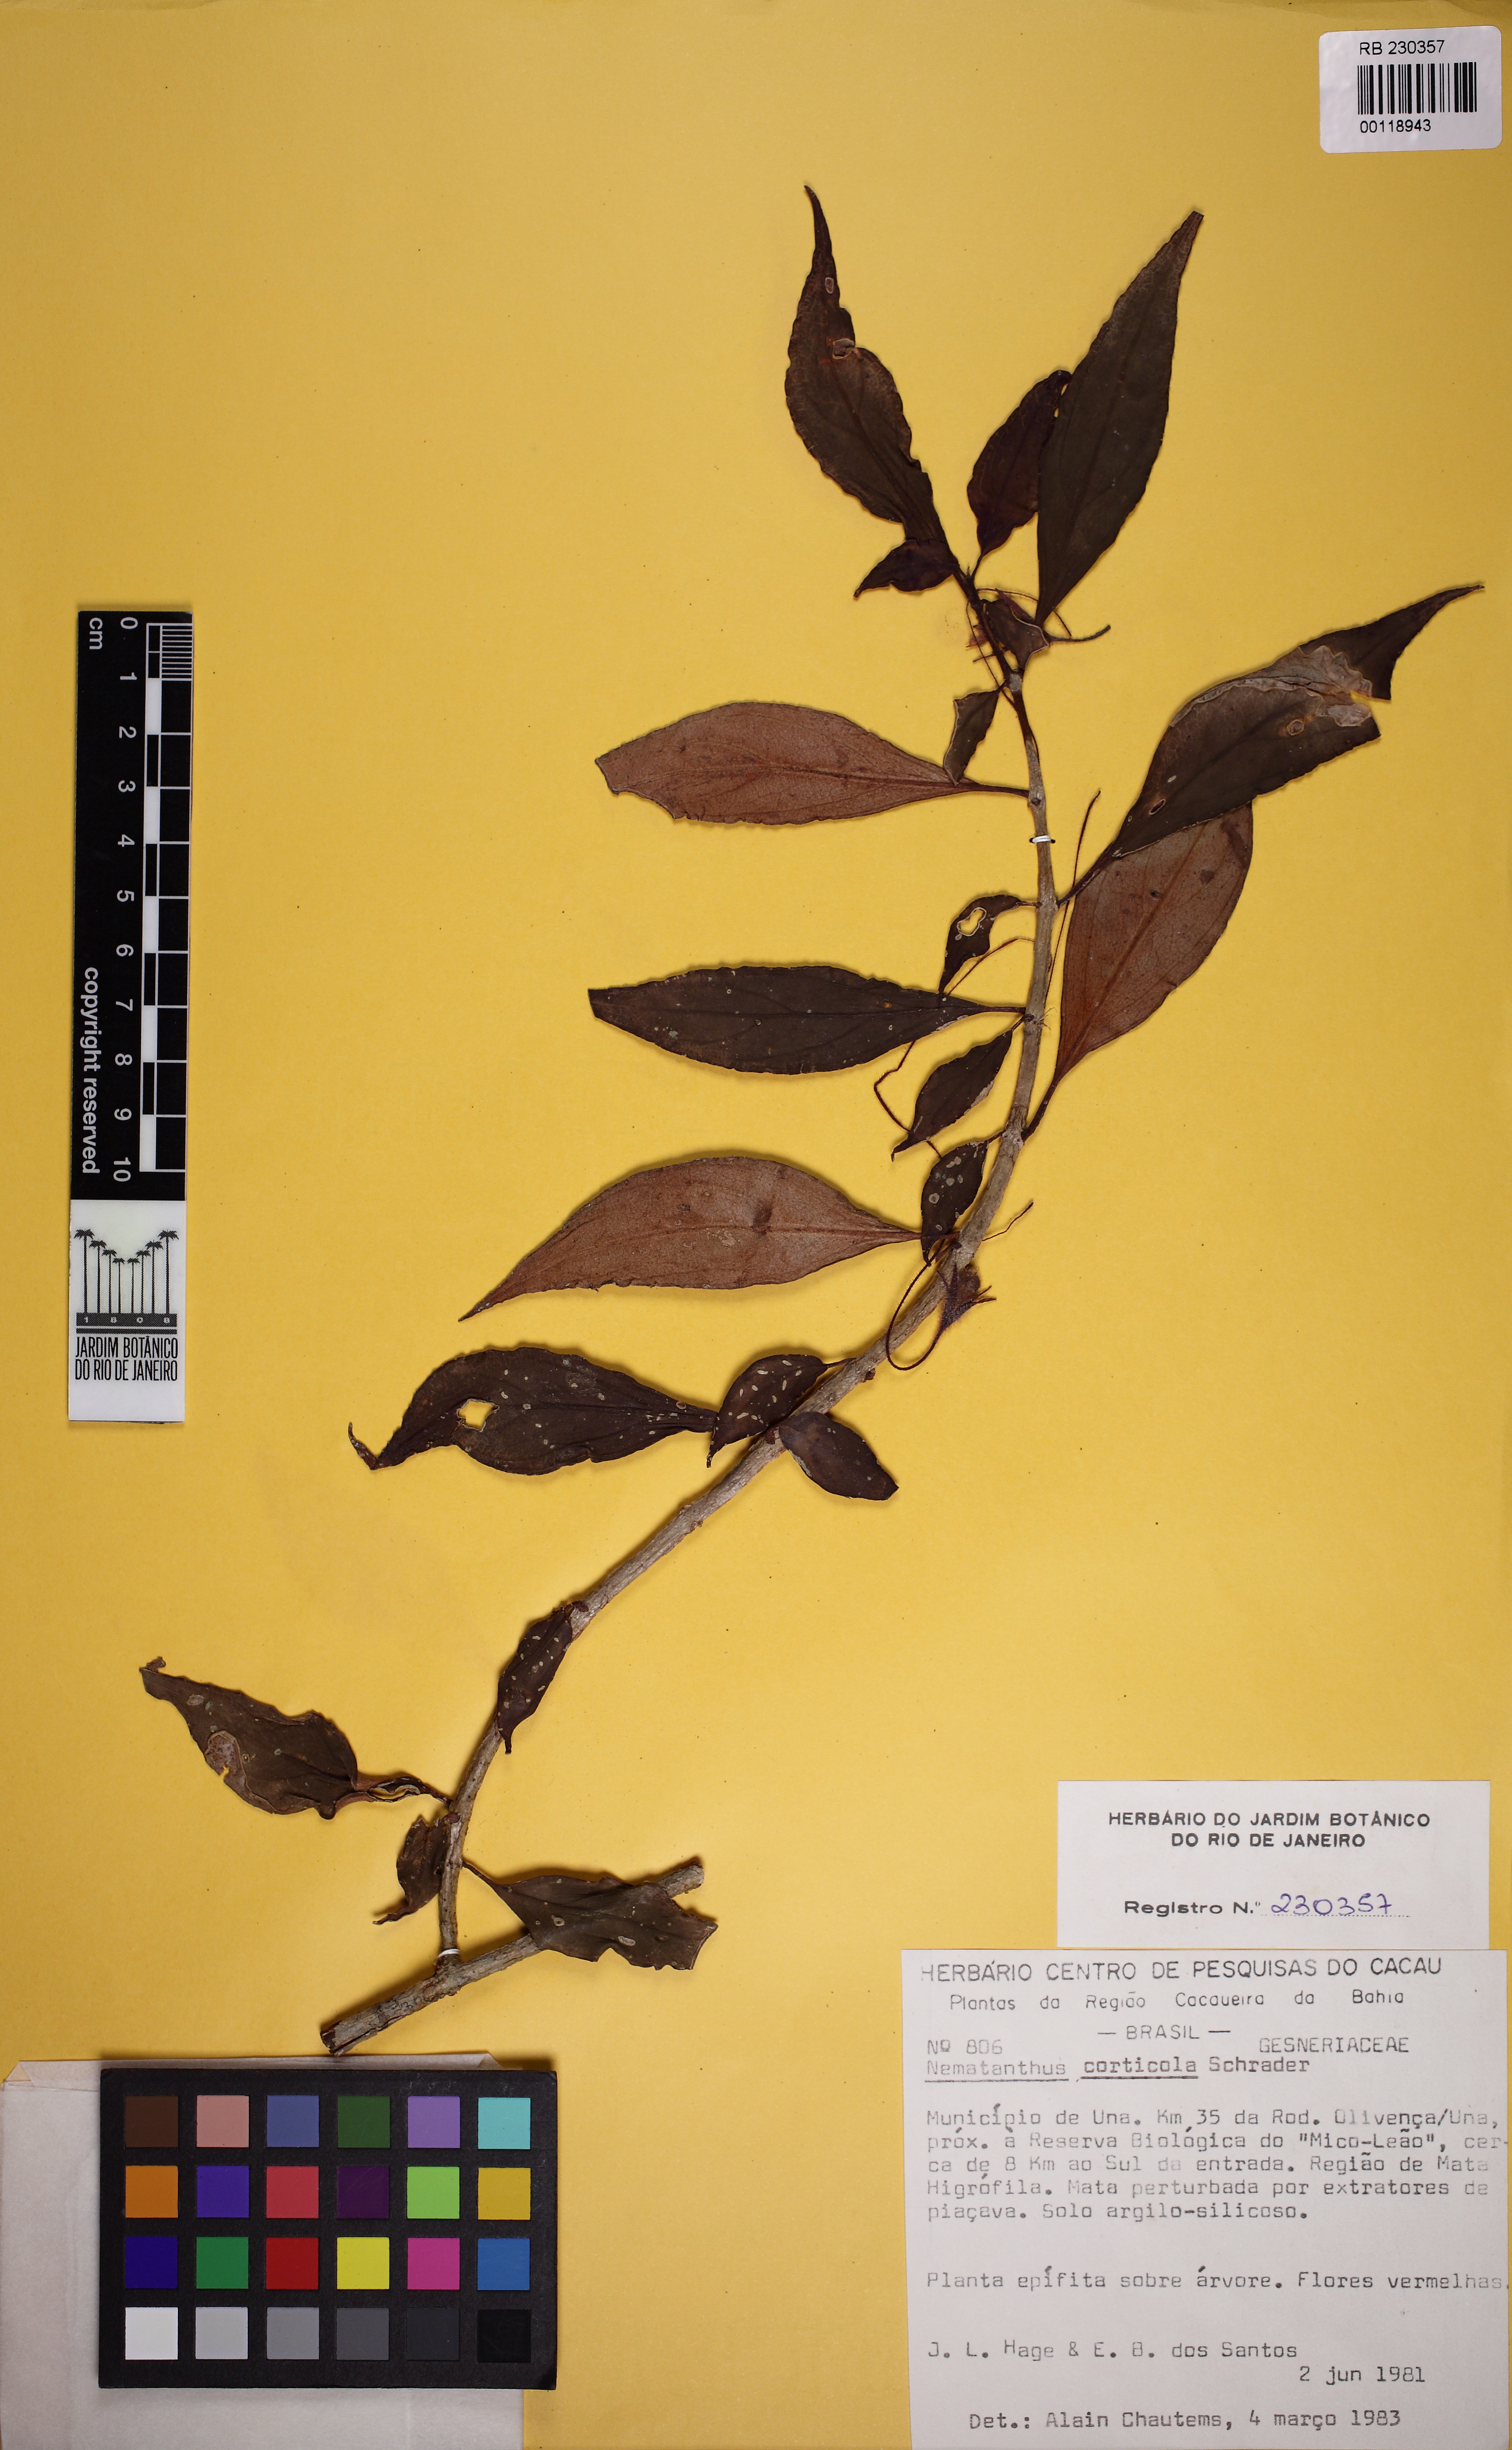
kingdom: Plantae
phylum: Tracheophyta
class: Magnoliopsida
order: Lamiales
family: Gesneriaceae
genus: Nematanthus
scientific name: Nematanthus corticola
